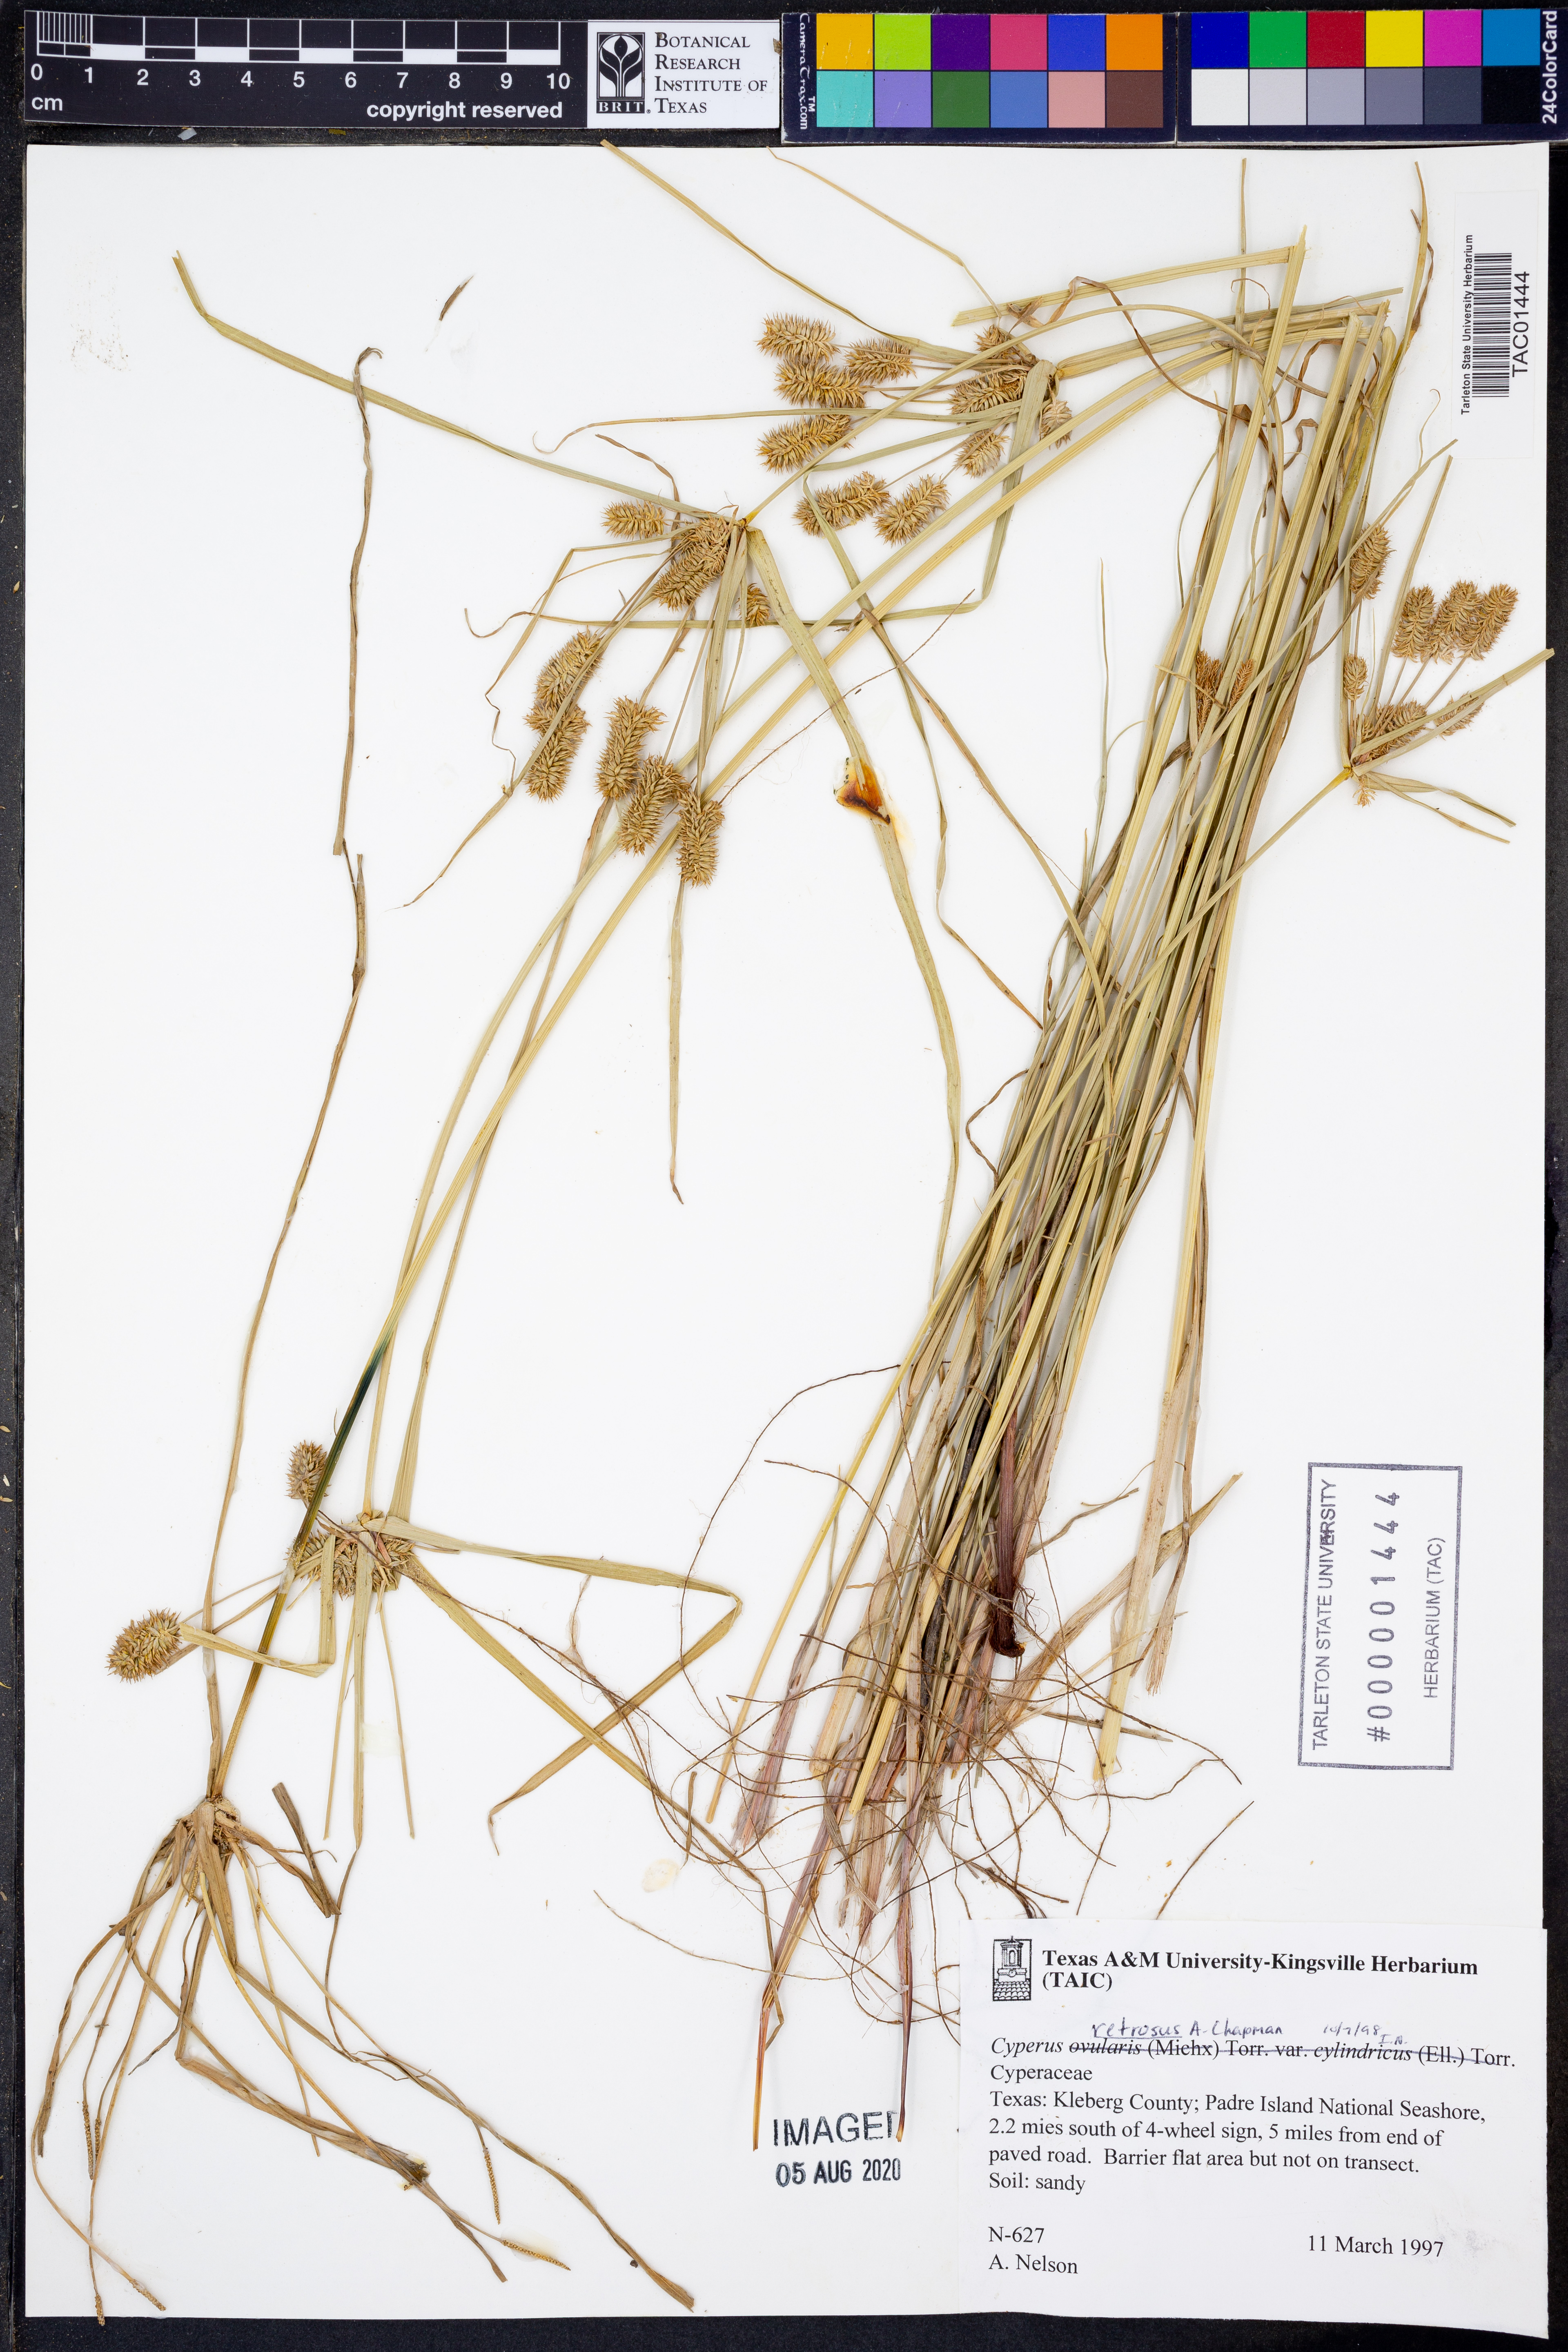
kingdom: Plantae
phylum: Tracheophyta
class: Liliopsida
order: Poales
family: Cyperaceae
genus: Cyperus
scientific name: Cyperus retrorsus
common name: Pinebarren flat sedge
